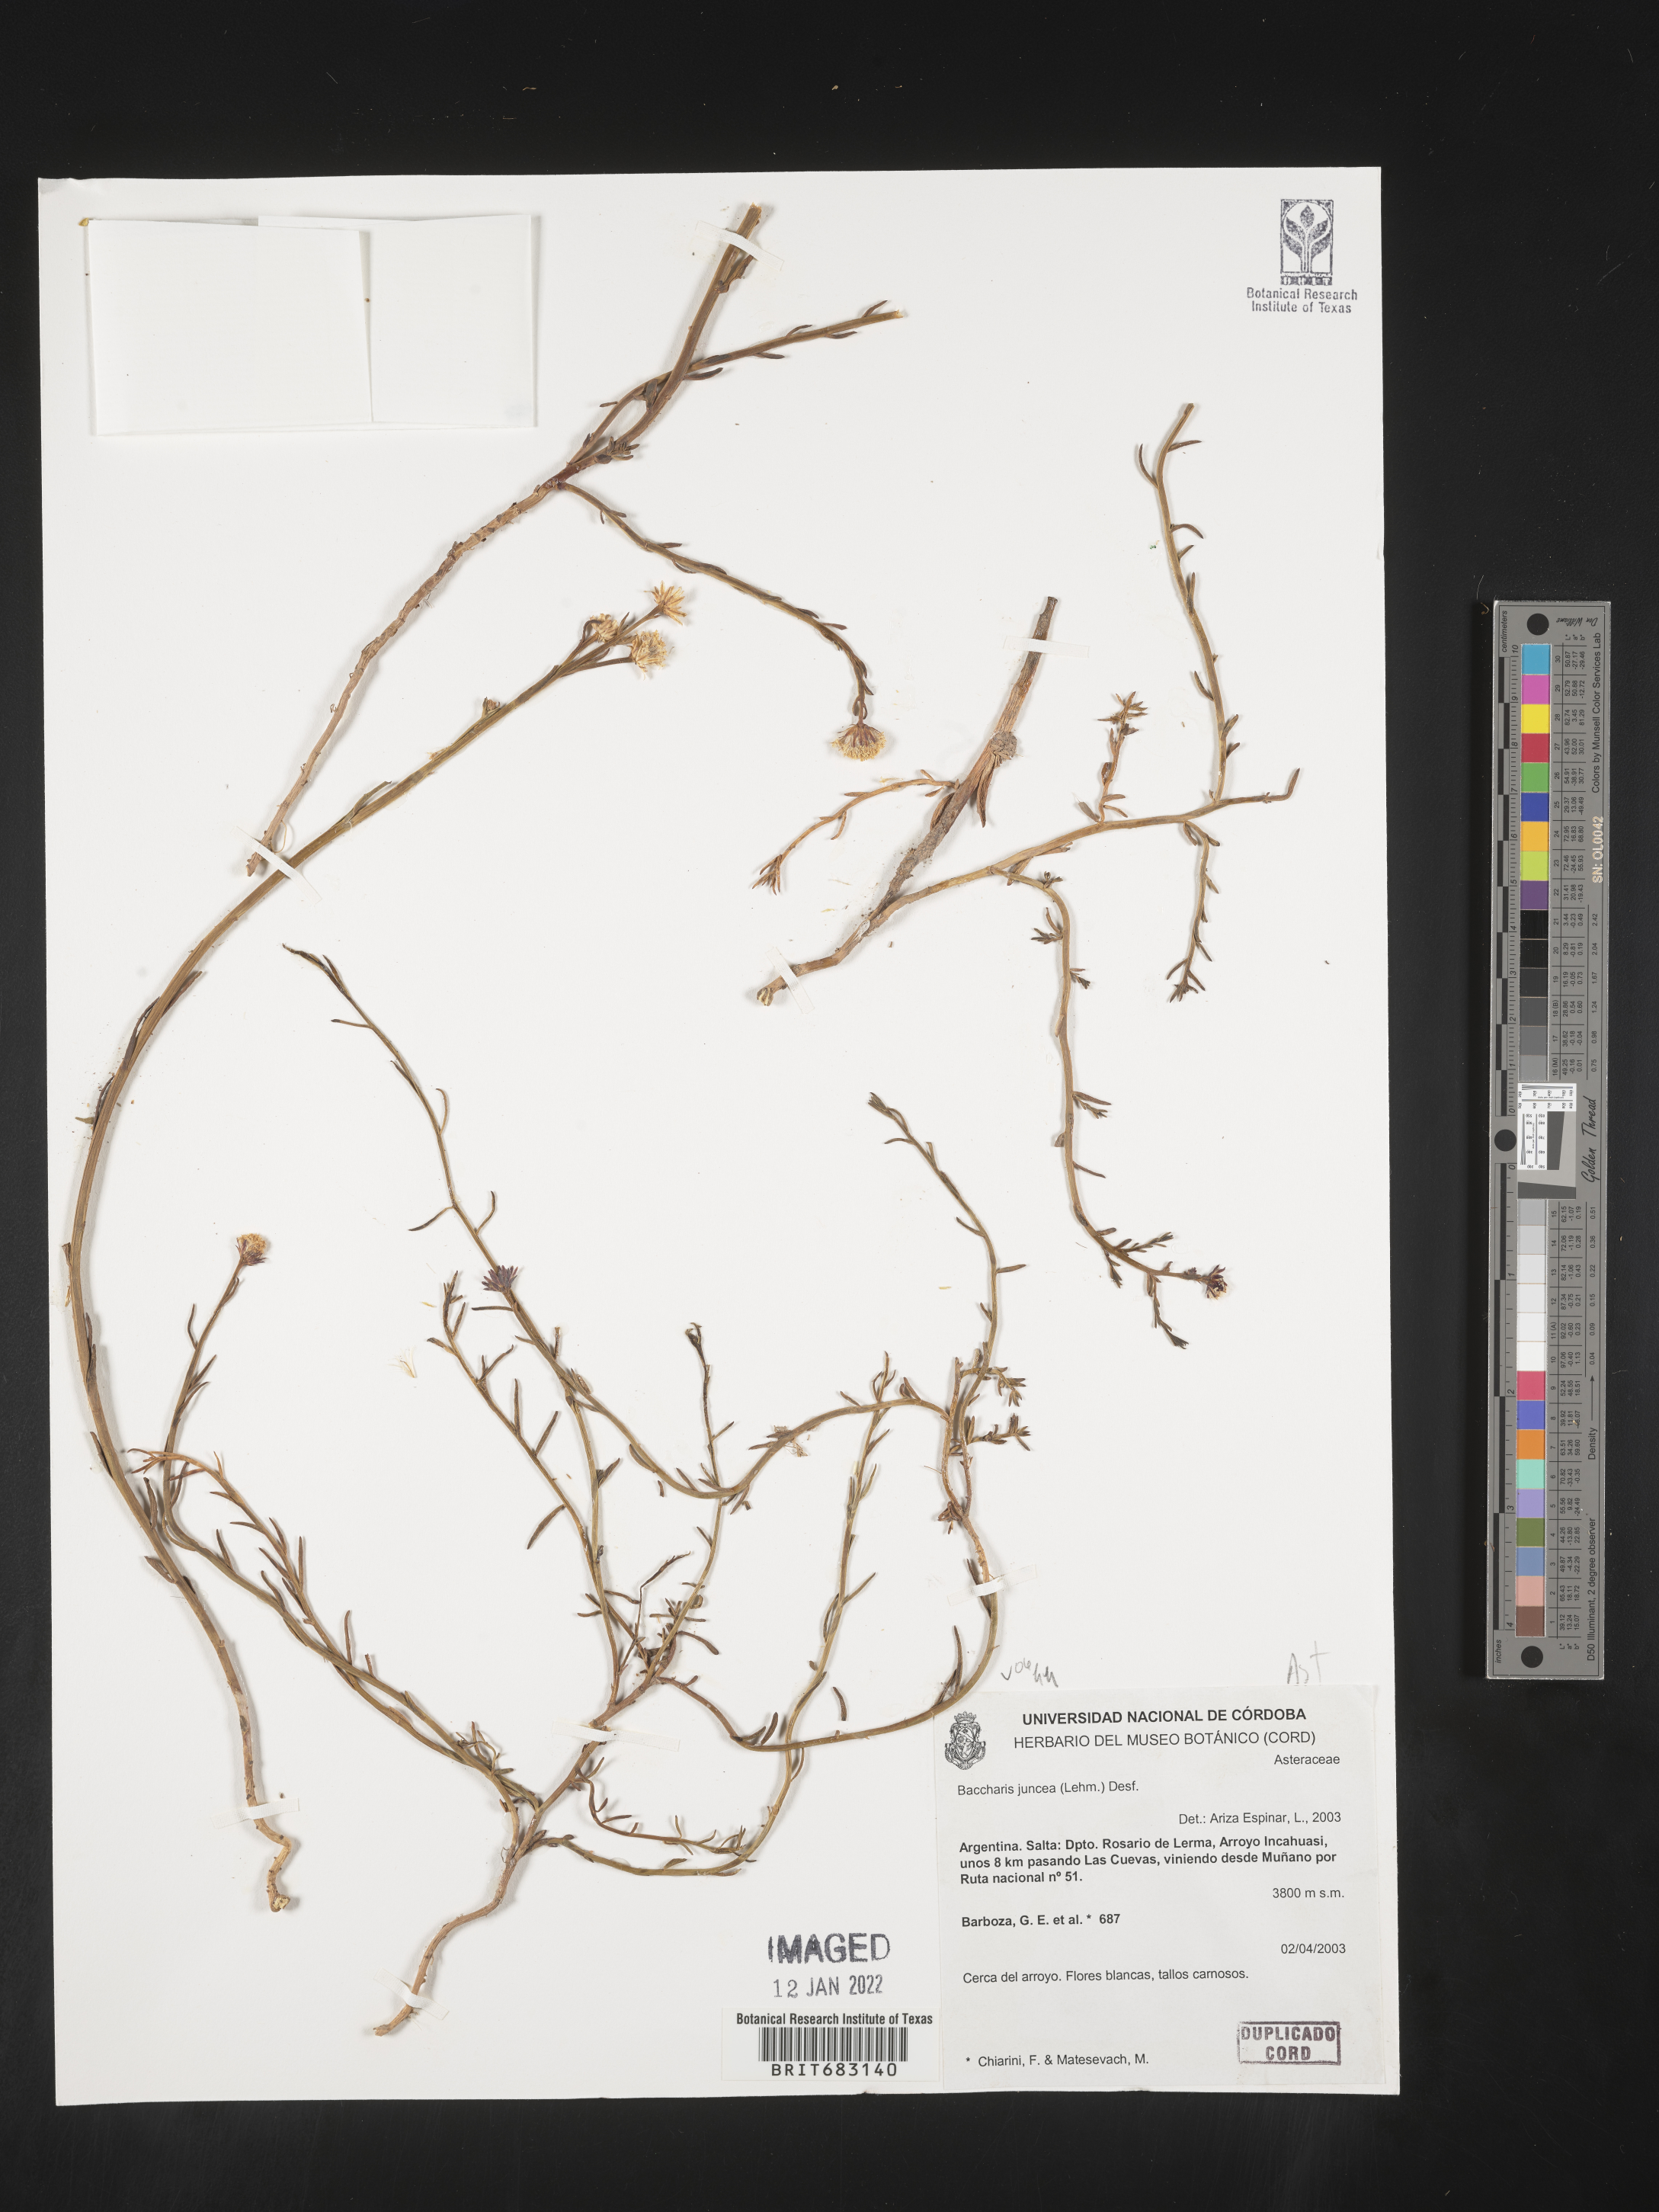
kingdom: Plantae
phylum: Tracheophyta
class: Magnoliopsida
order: Asterales
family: Asteraceae
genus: Baccharis
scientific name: Baccharis
